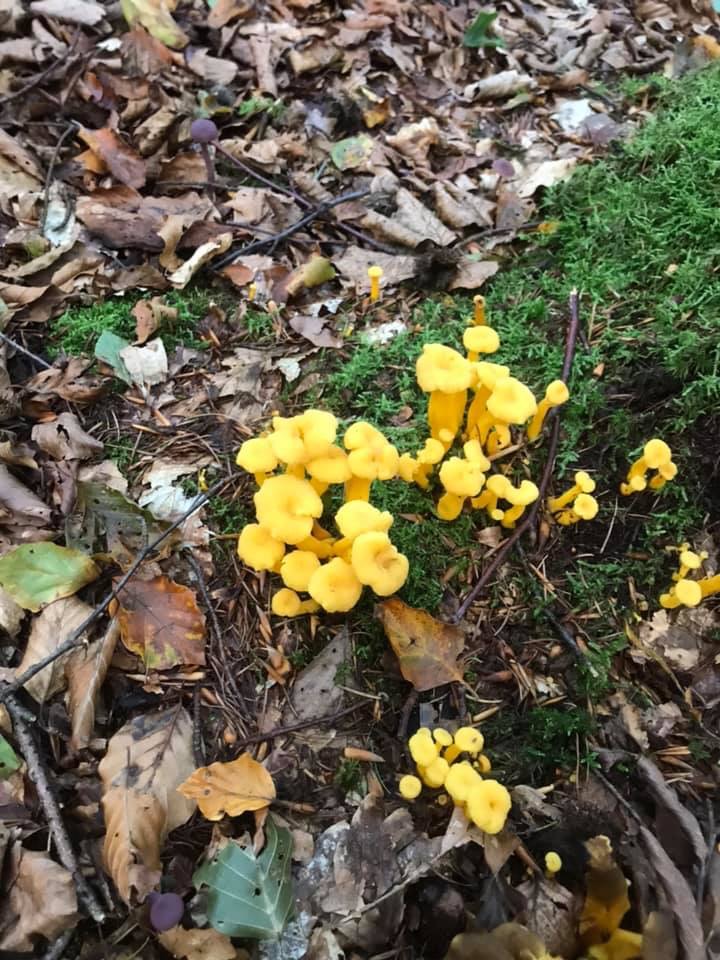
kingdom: Fungi
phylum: Basidiomycota
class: Agaricomycetes
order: Cantharellales
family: Hydnaceae
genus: Craterellus
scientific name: Craterellus tubaeformis
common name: tragt-kantarel
